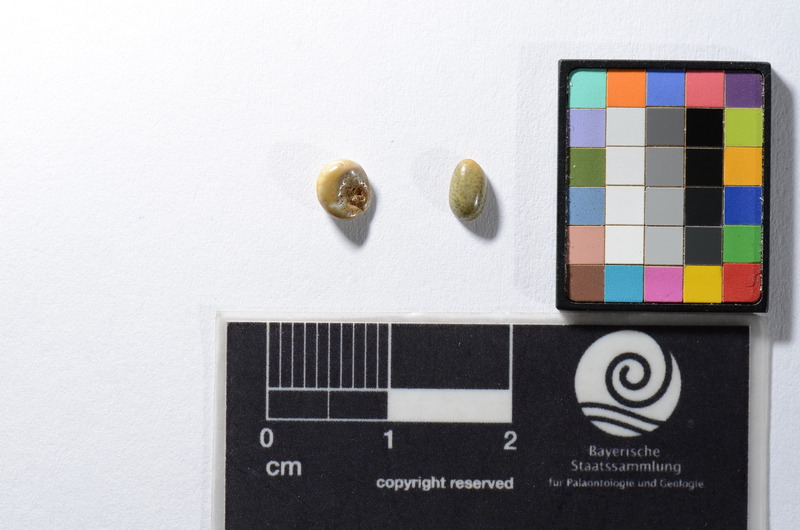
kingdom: Animalia
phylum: Chordata
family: Pycnodontes
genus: Coelodus
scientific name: Coelodus
